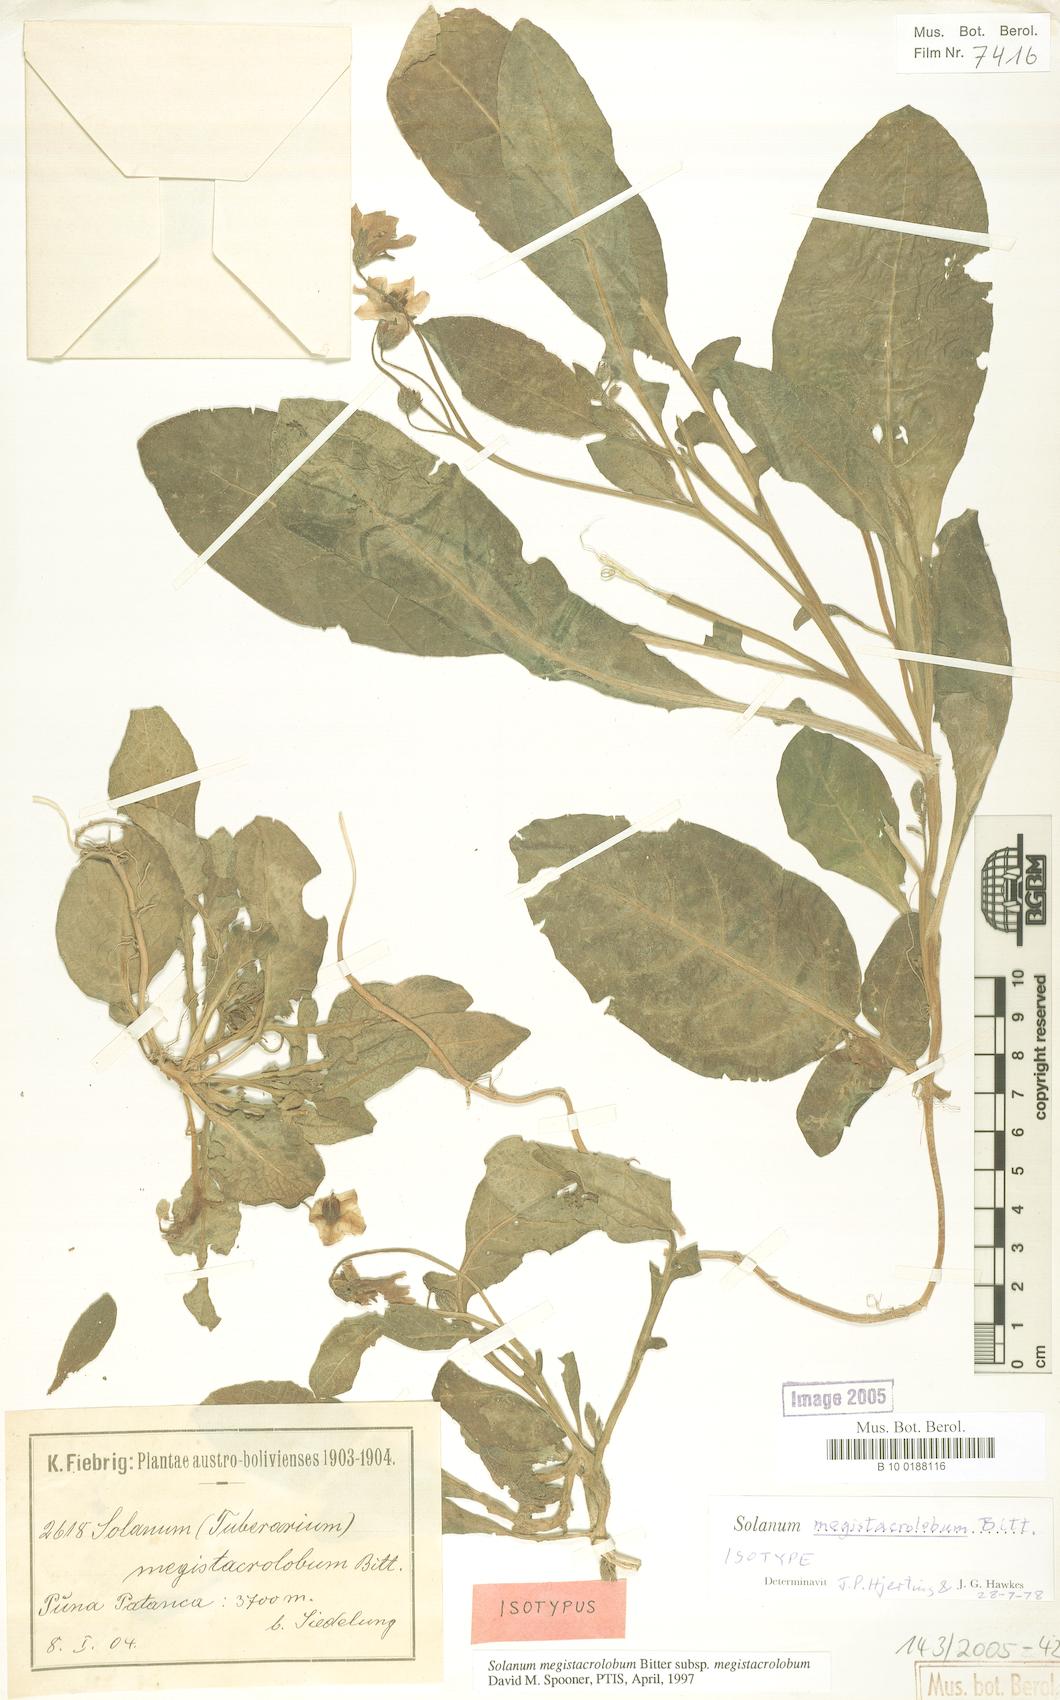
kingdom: Plantae
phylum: Tracheophyta
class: Magnoliopsida
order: Solanales
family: Solanaceae
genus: Solanum
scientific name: Solanum boliviense
